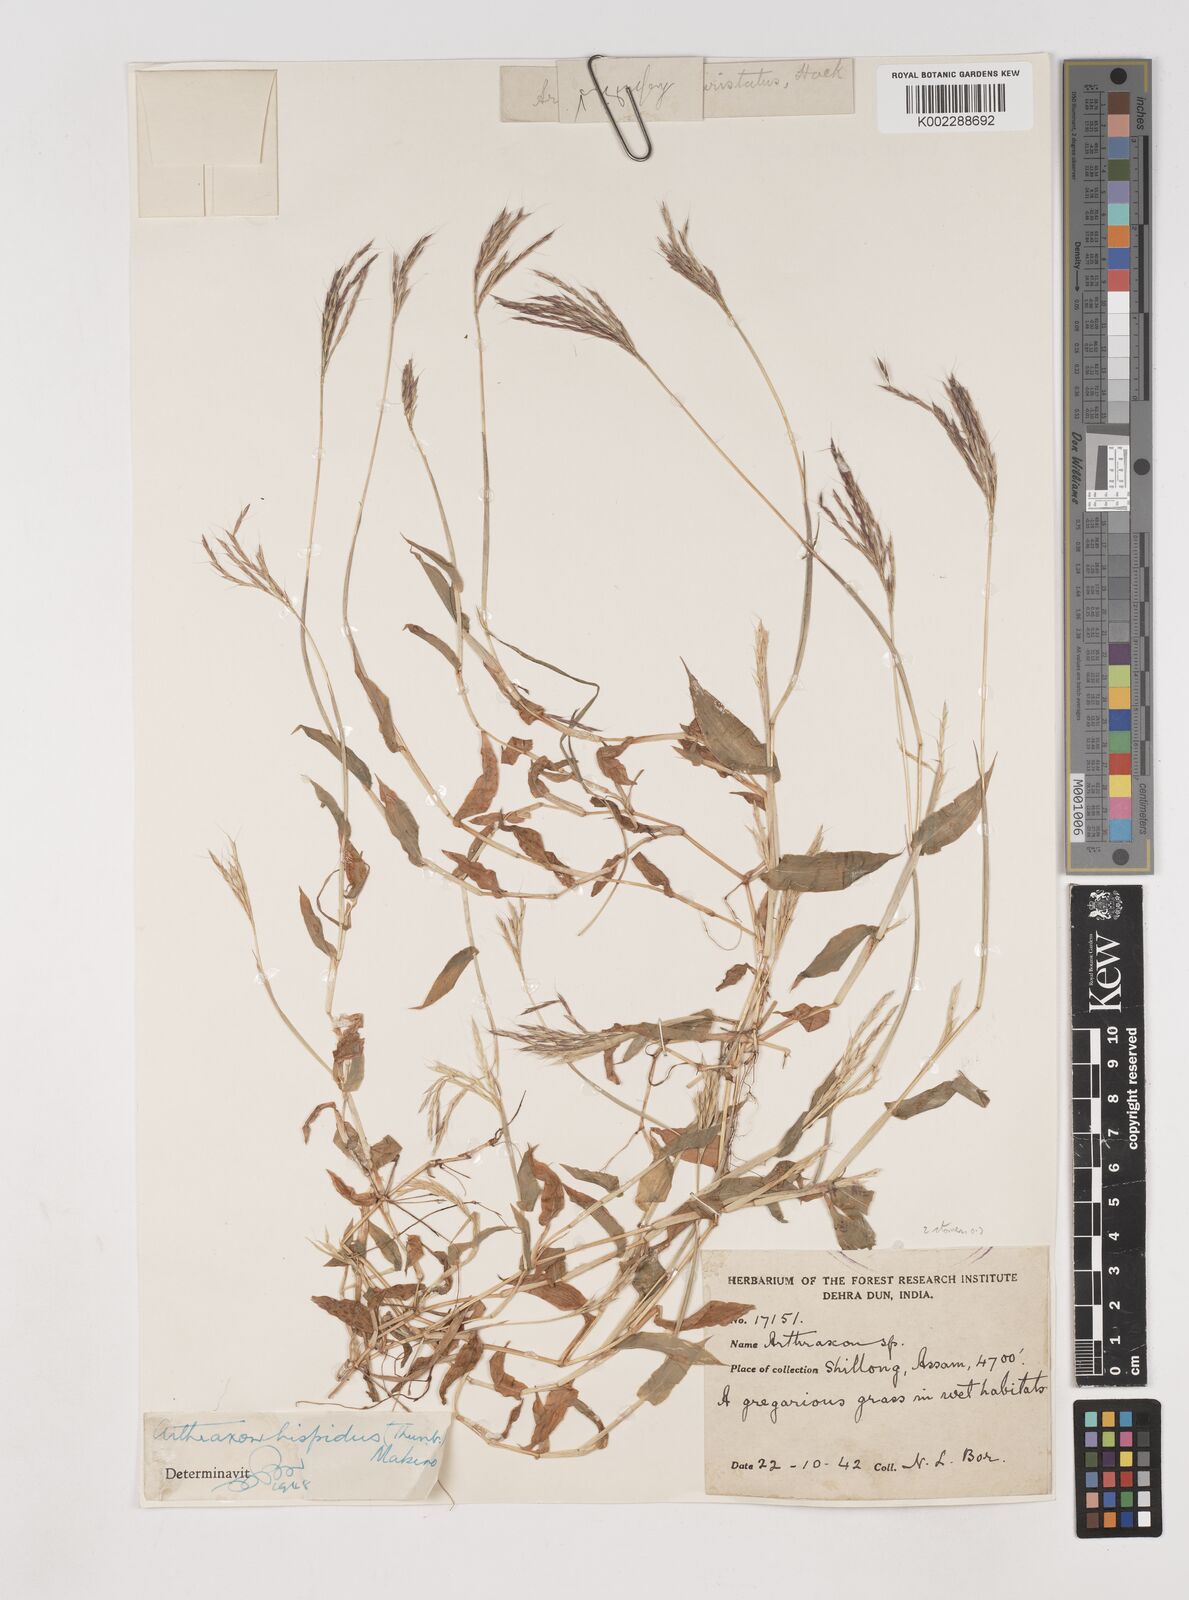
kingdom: Plantae
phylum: Tracheophyta
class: Liliopsida
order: Poales
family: Poaceae
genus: Arthraxon
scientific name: Arthraxon hispidus
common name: Small carpgrass
